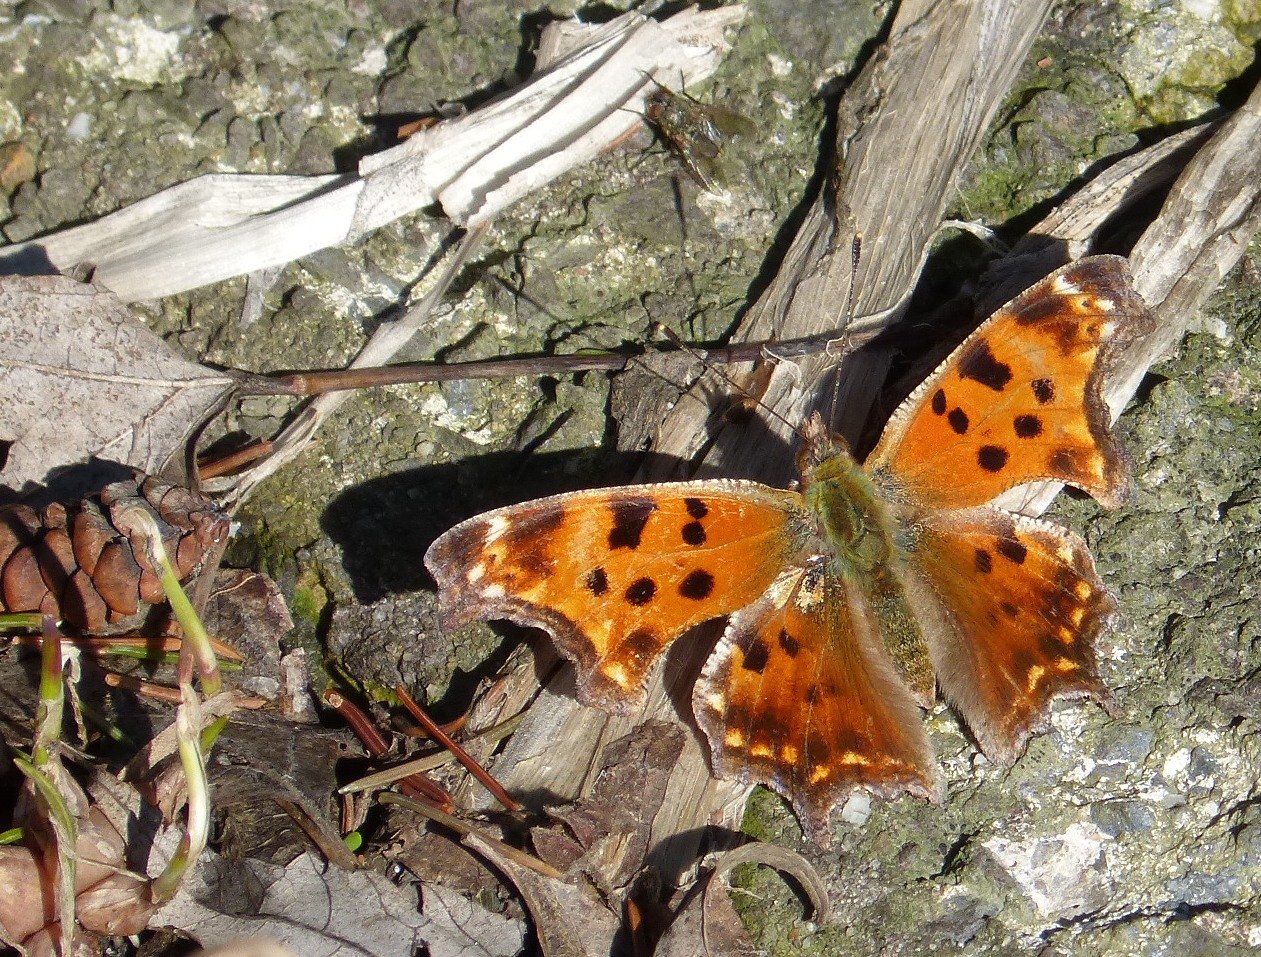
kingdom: Animalia
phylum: Arthropoda
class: Insecta
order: Lepidoptera
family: Nymphalidae
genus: Polygonia
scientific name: Polygonia comma
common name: Eastern Comma
